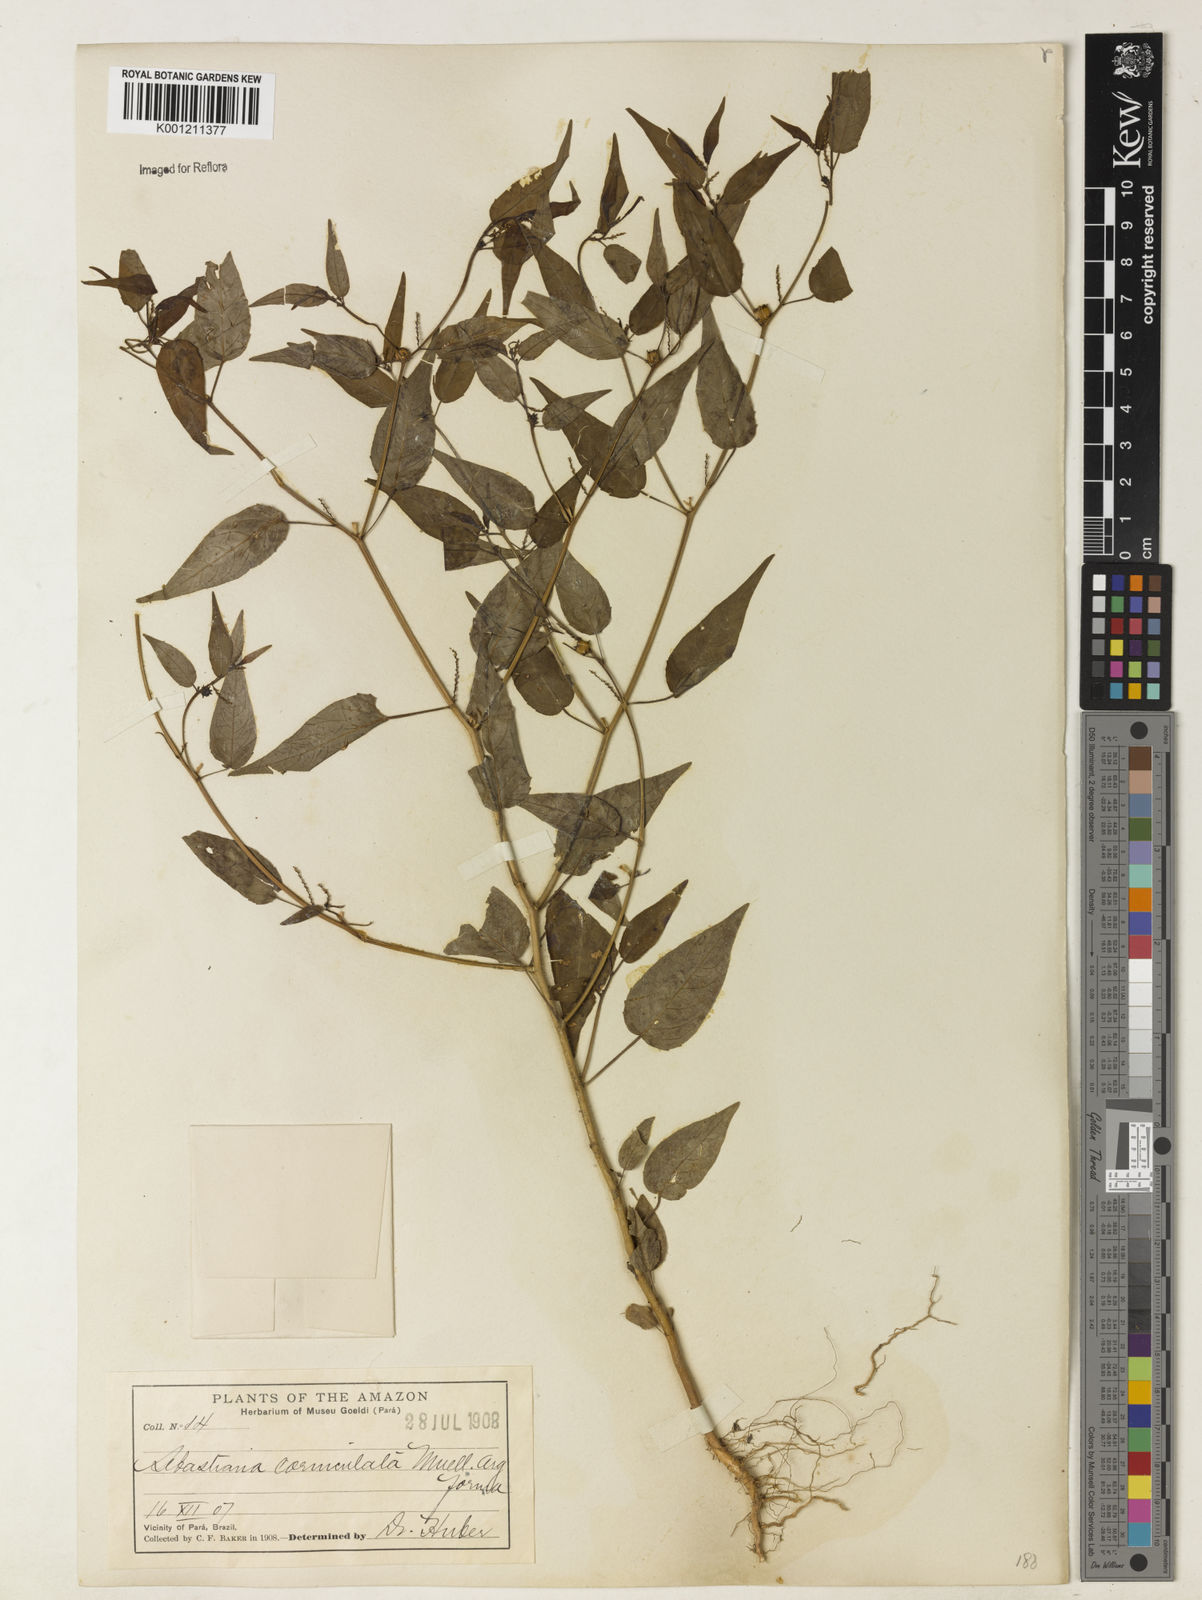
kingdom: Plantae
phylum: Tracheophyta
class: Magnoliopsida
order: Malpighiales
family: Euphorbiaceae
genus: Microstachys
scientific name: Microstachys corniculata
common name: Hato tejas
